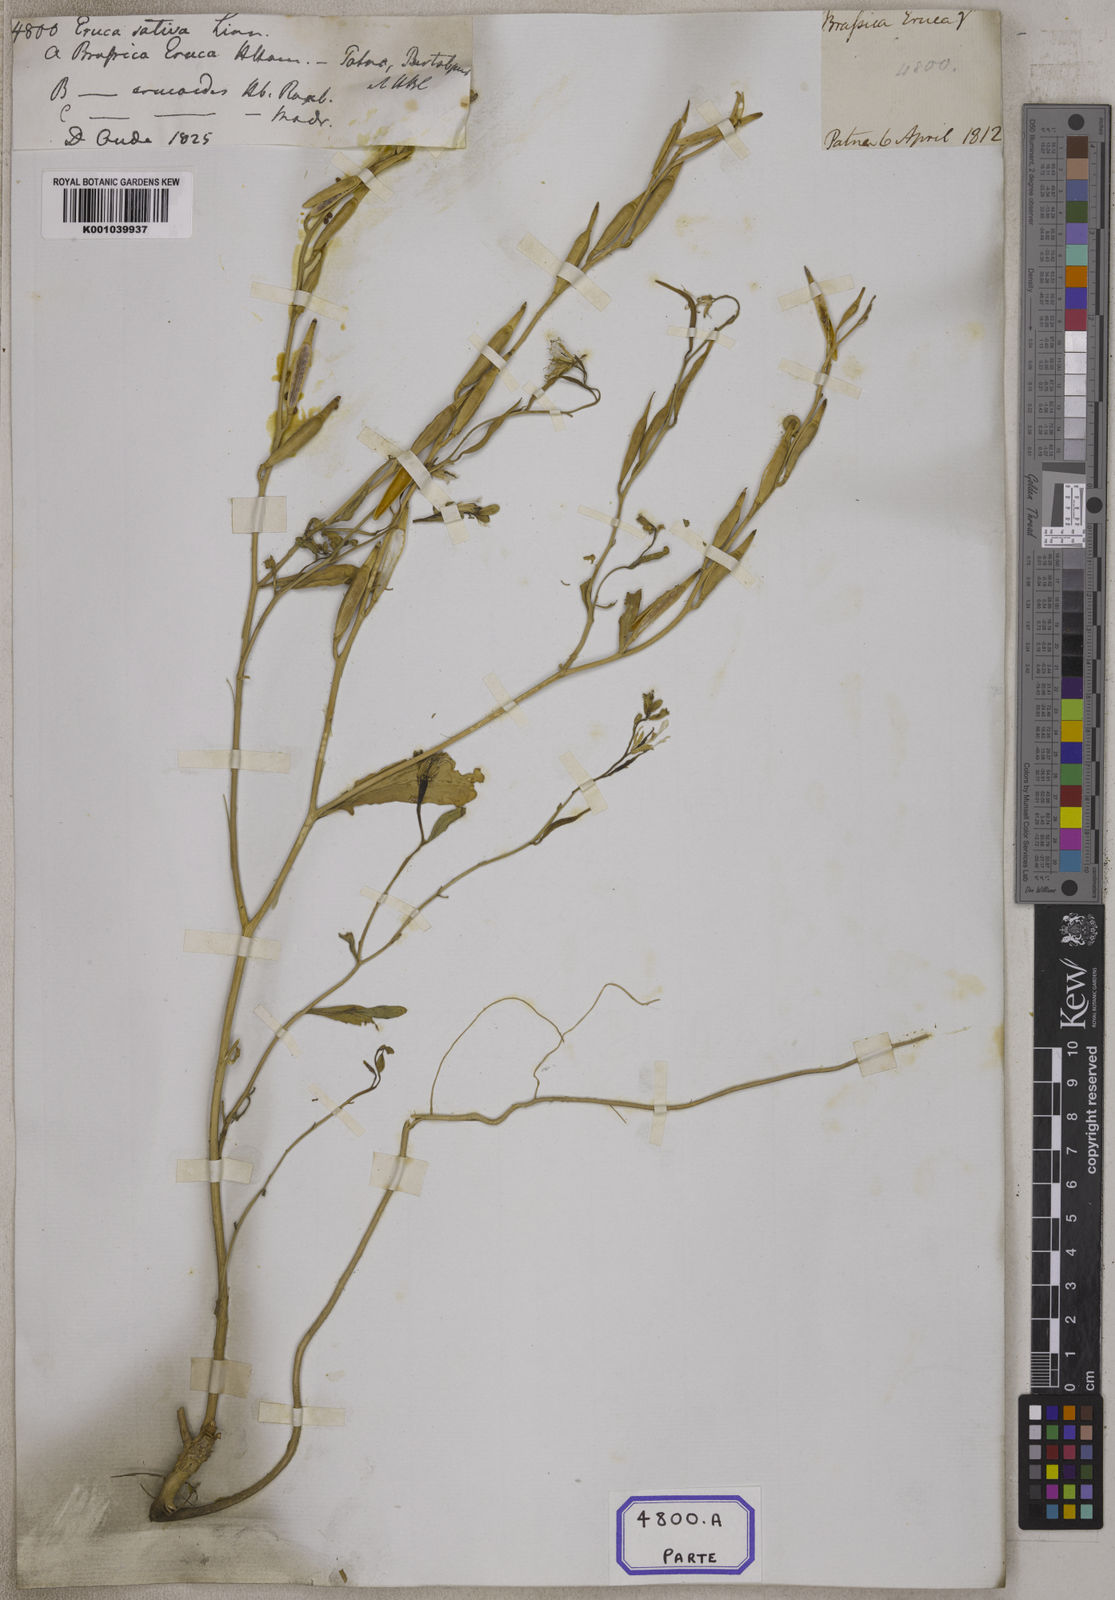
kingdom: Plantae
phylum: Tracheophyta
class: Magnoliopsida
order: Brassicales
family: Brassicaceae
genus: Eruca
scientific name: Eruca
